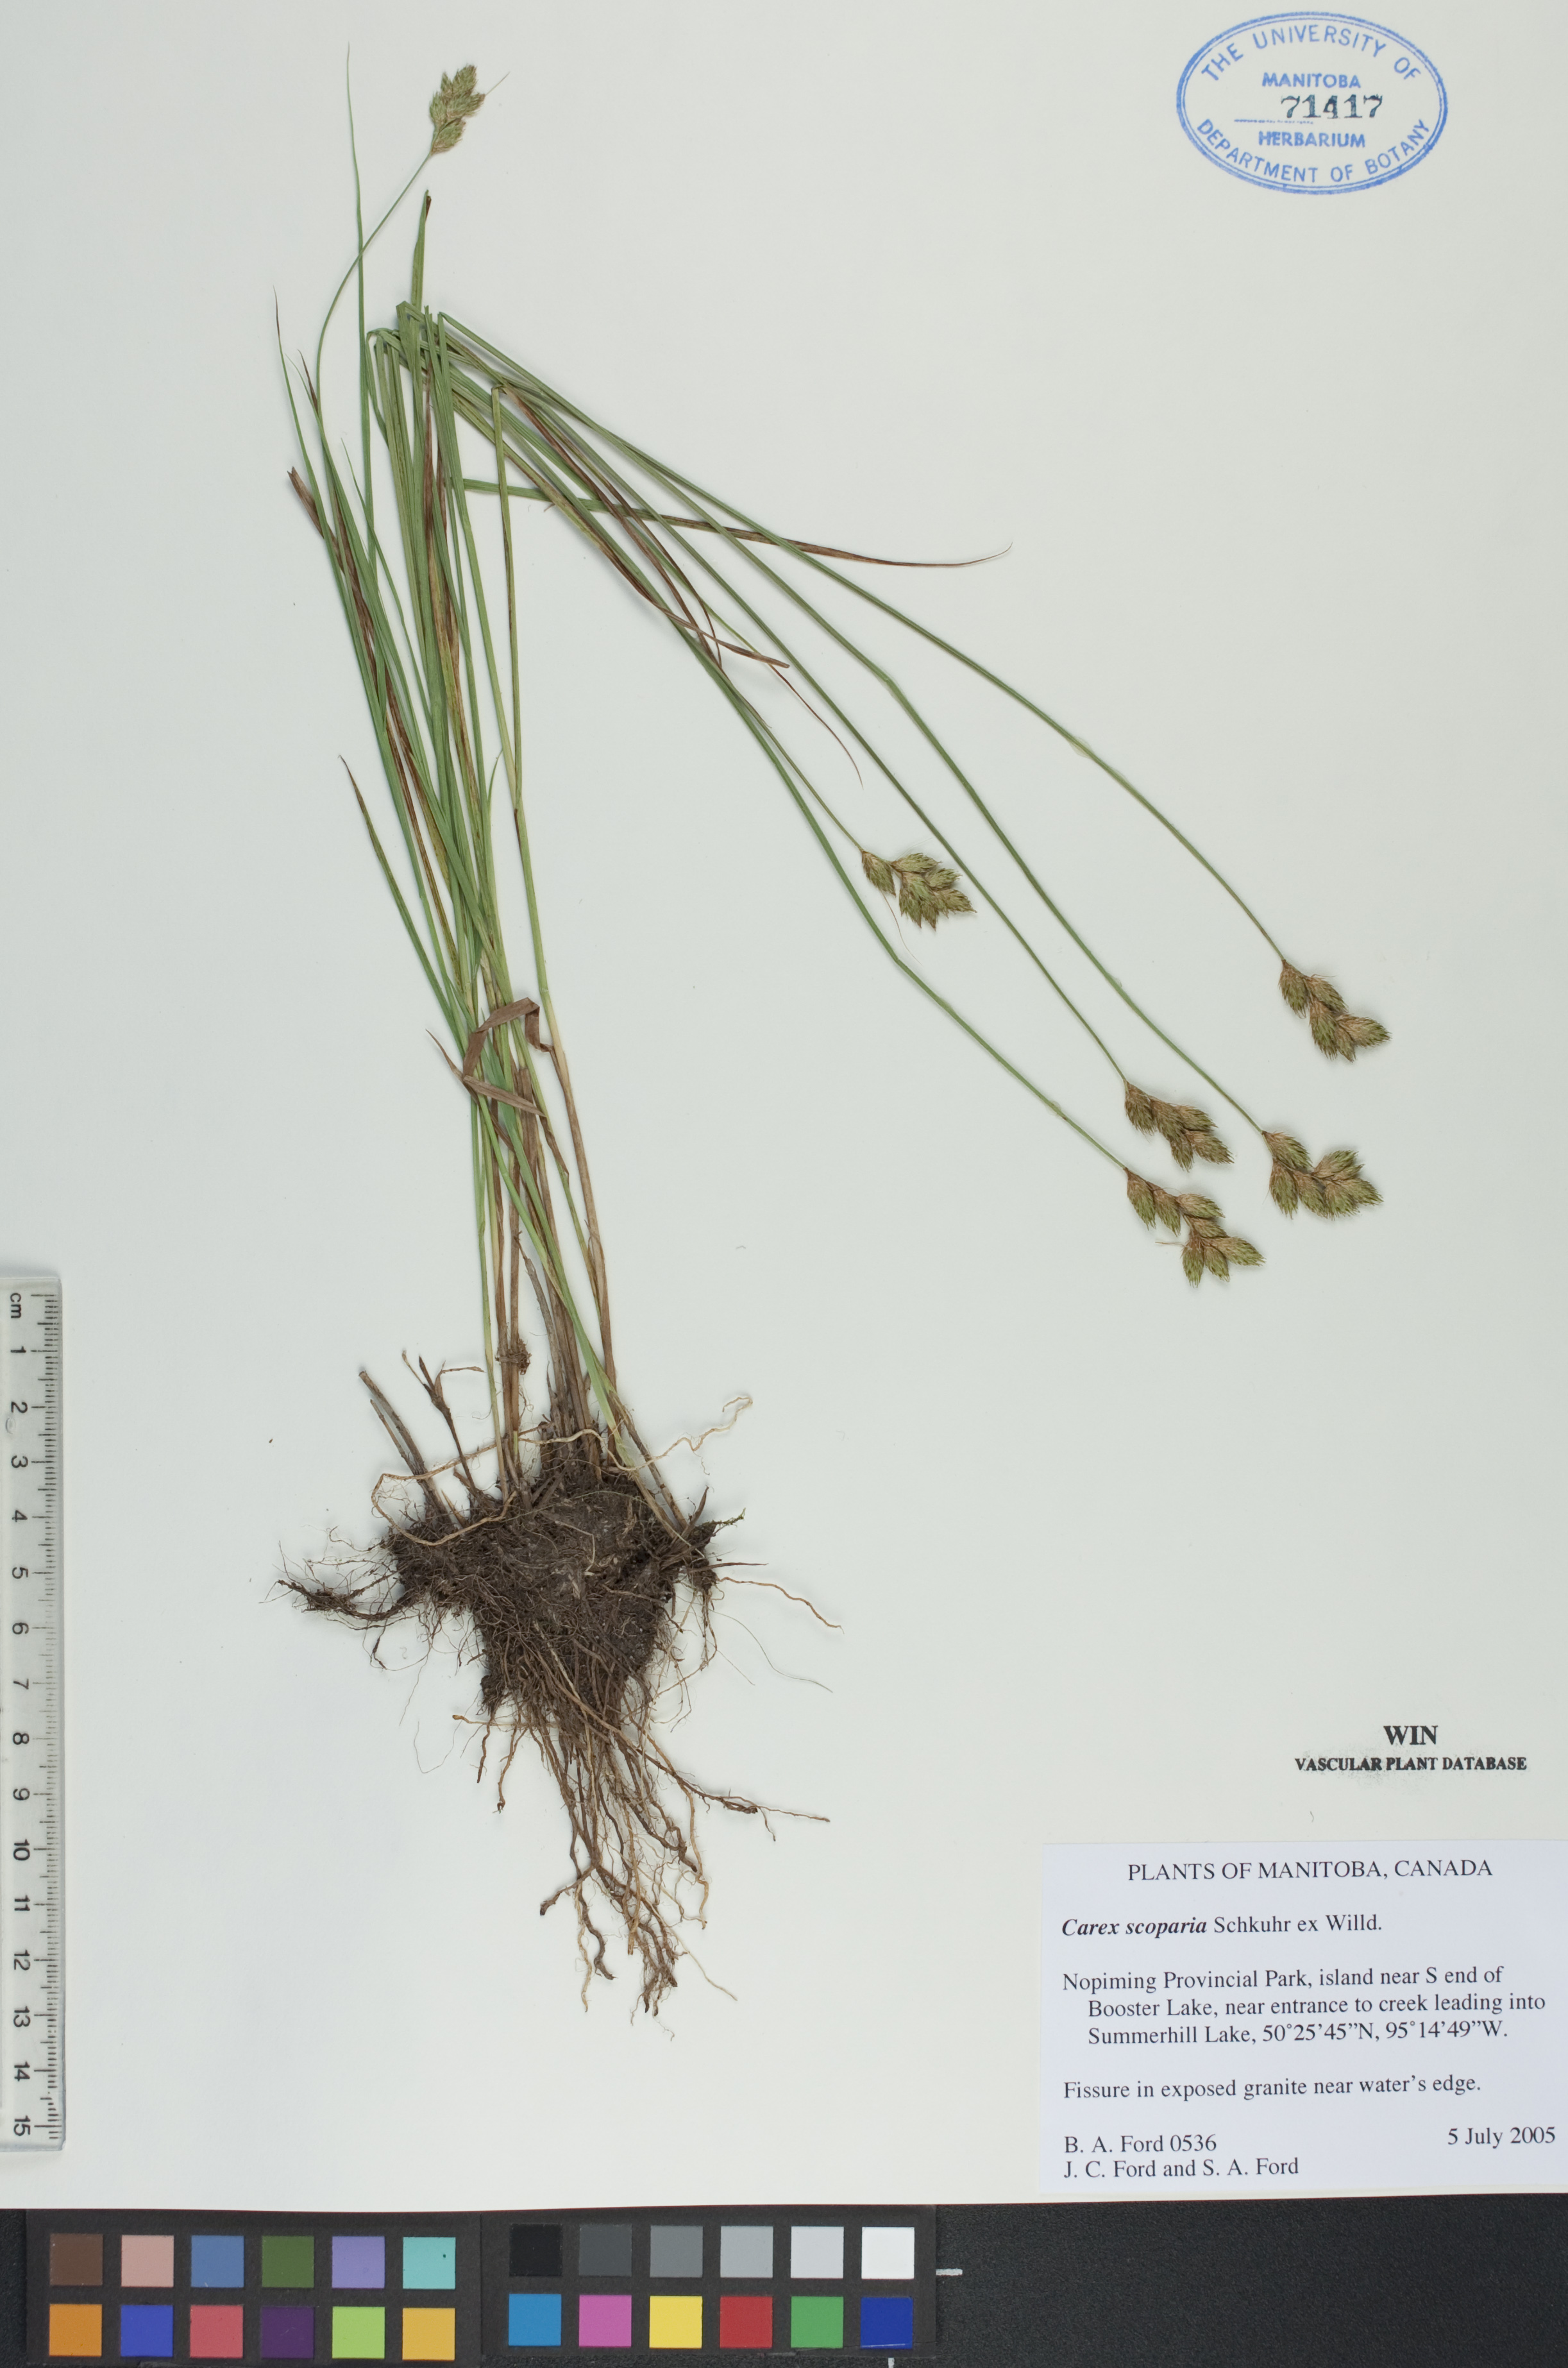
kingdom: Plantae
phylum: Tracheophyta
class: Liliopsida
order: Poales
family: Cyperaceae
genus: Carex
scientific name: Carex scoparia
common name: Broom sedge
